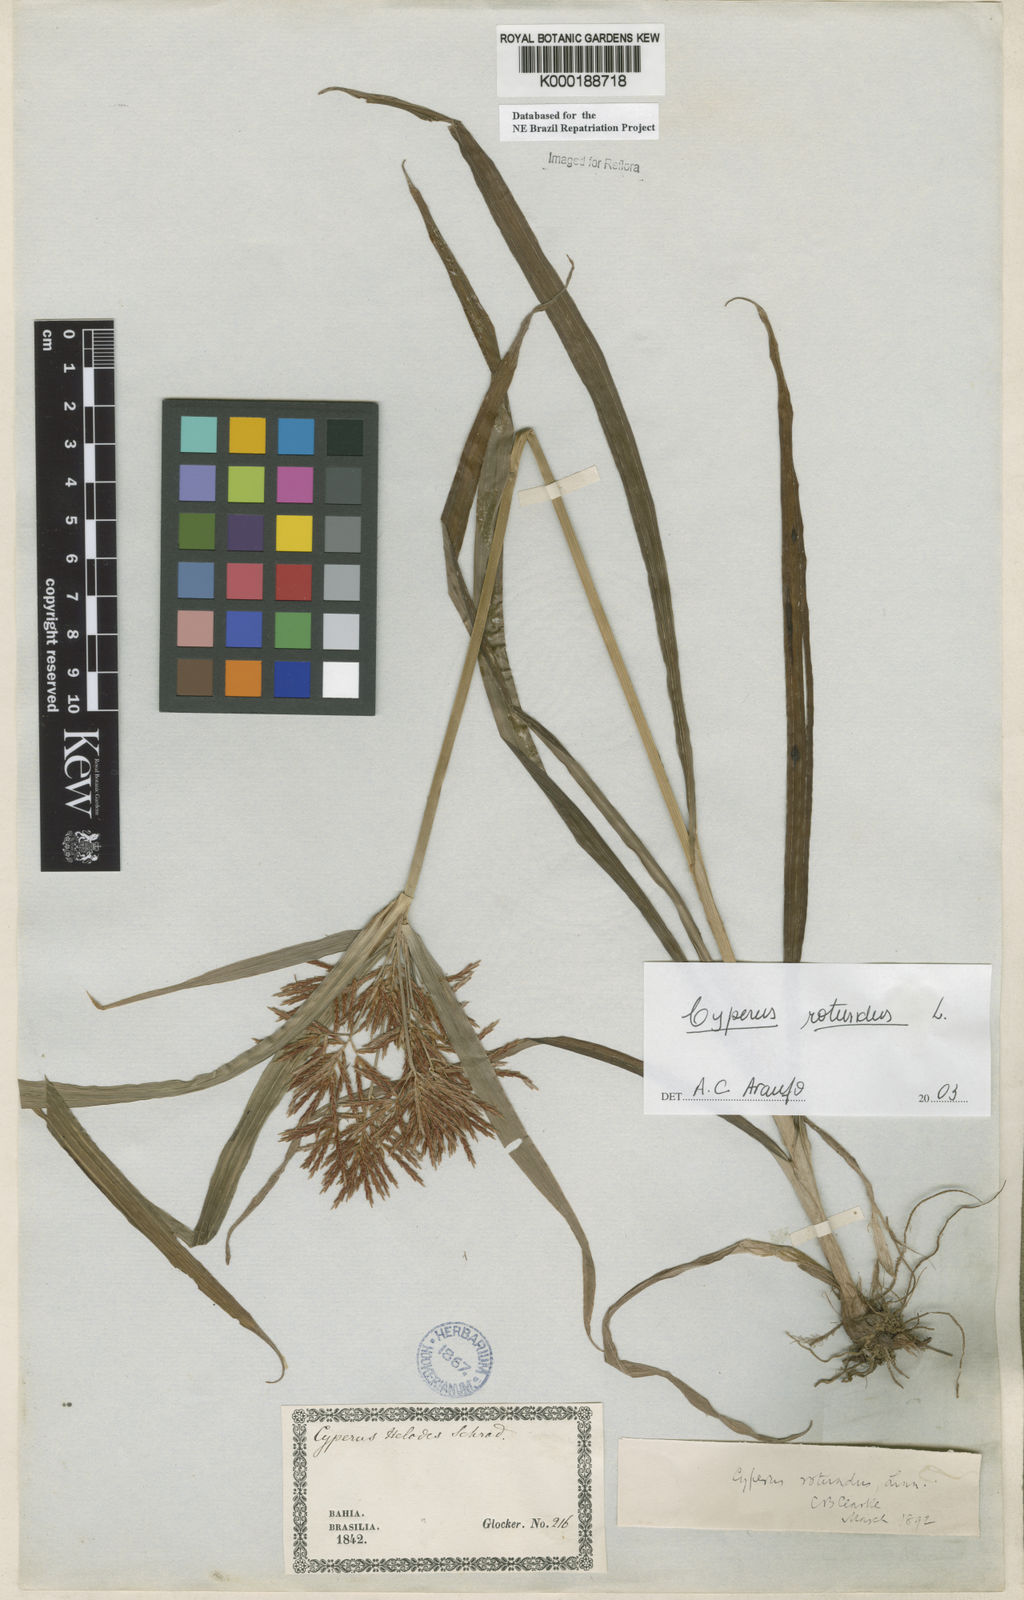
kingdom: Plantae
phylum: Tracheophyta
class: Liliopsida
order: Poales
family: Cyperaceae
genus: Cyperus
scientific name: Cyperus rotundus
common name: Nutgrass
